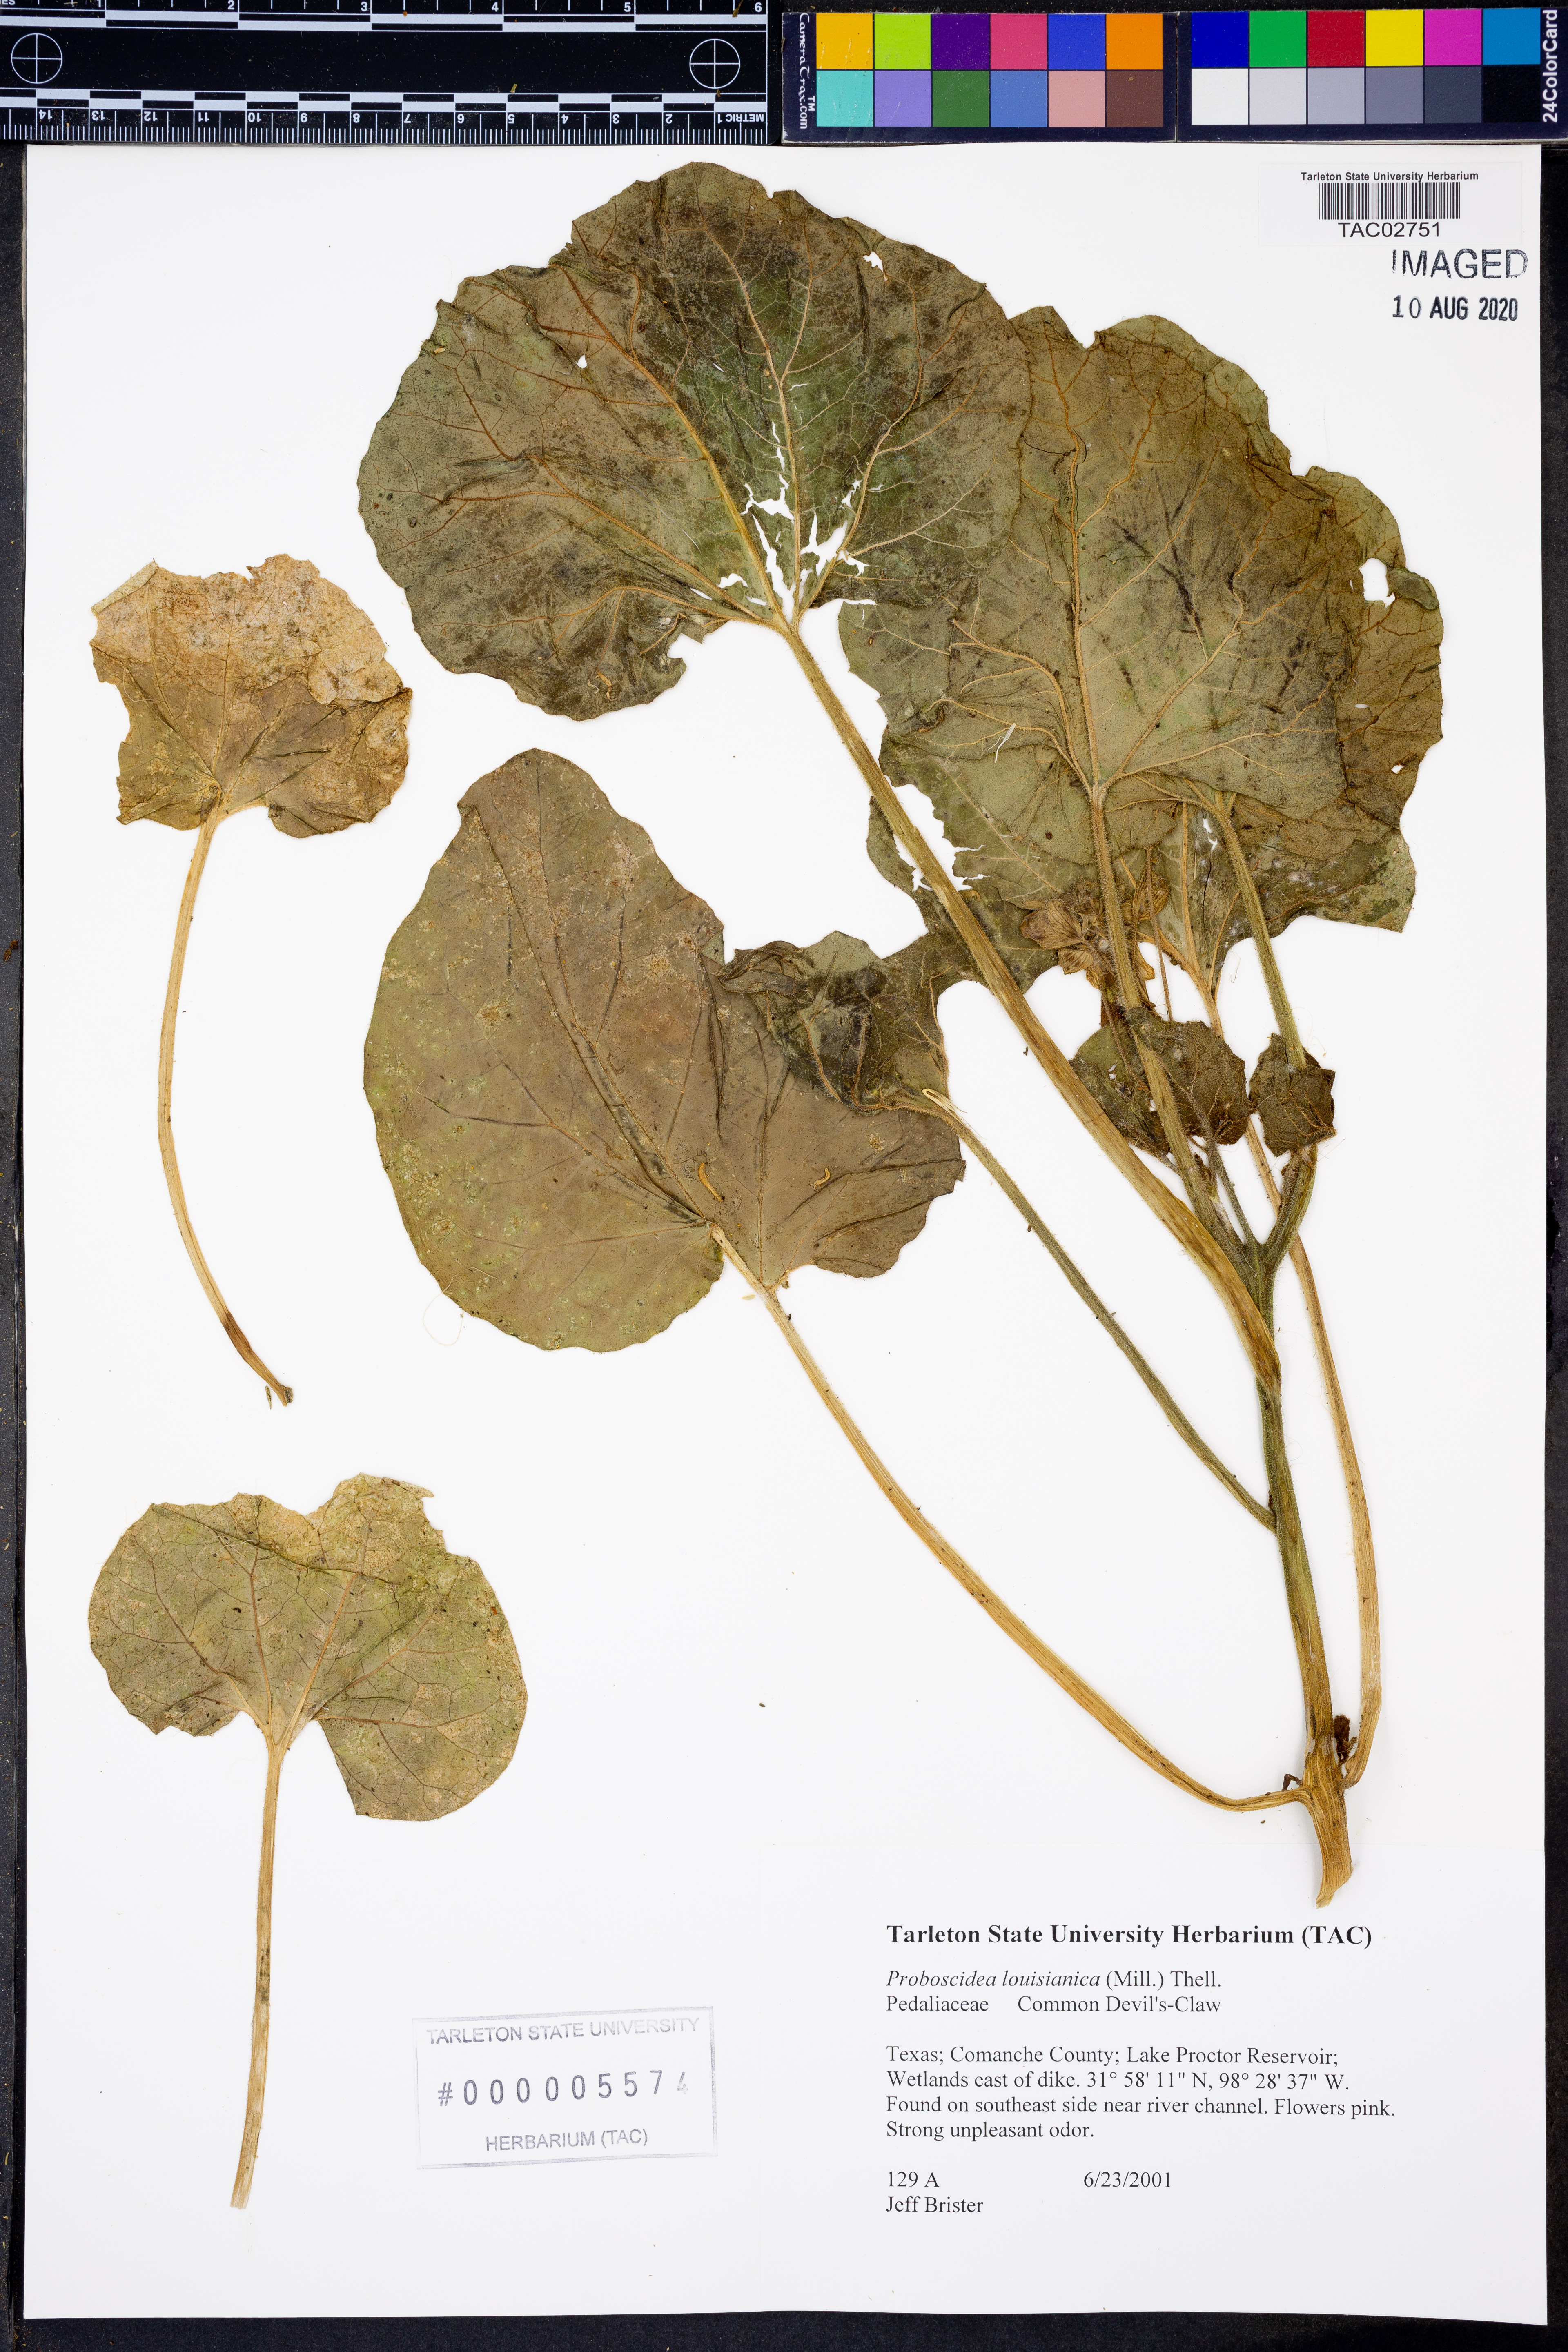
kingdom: Plantae
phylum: Tracheophyta
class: Magnoliopsida
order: Lamiales
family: Martyniaceae
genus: Proboscidea
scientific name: Proboscidea louisianica
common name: Elephant tusks
